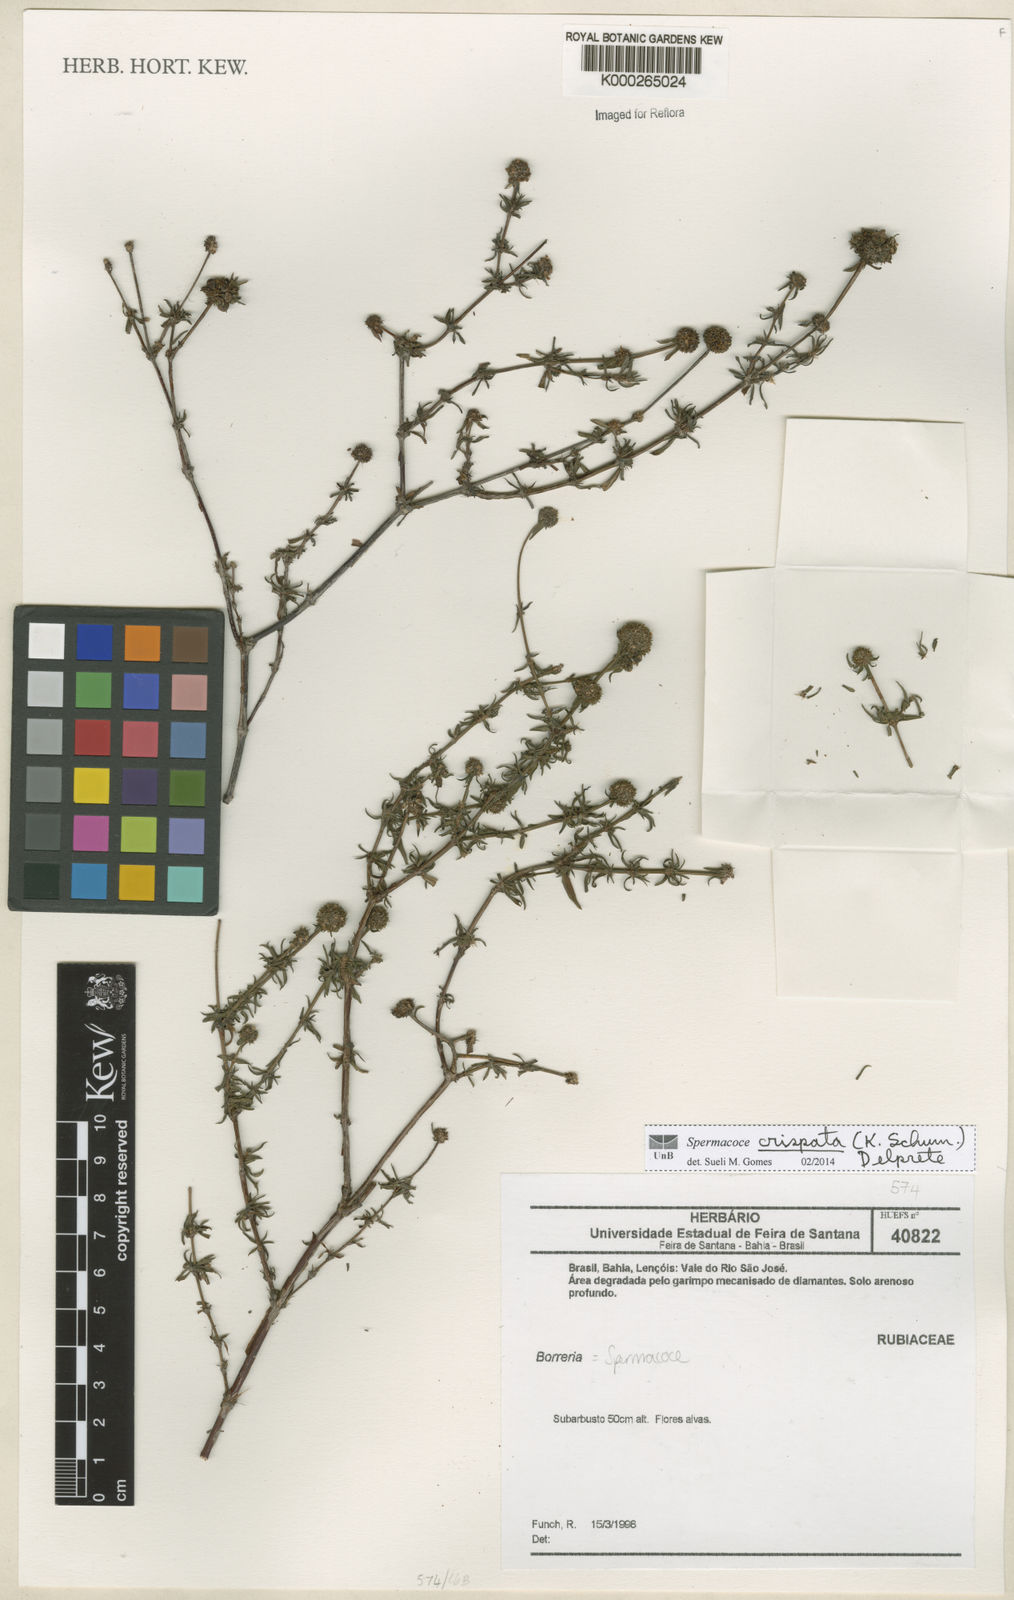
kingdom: Plantae
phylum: Tracheophyta
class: Magnoliopsida
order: Gentianales
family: Rubiaceae
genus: Spermacoce
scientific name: Spermacoce
